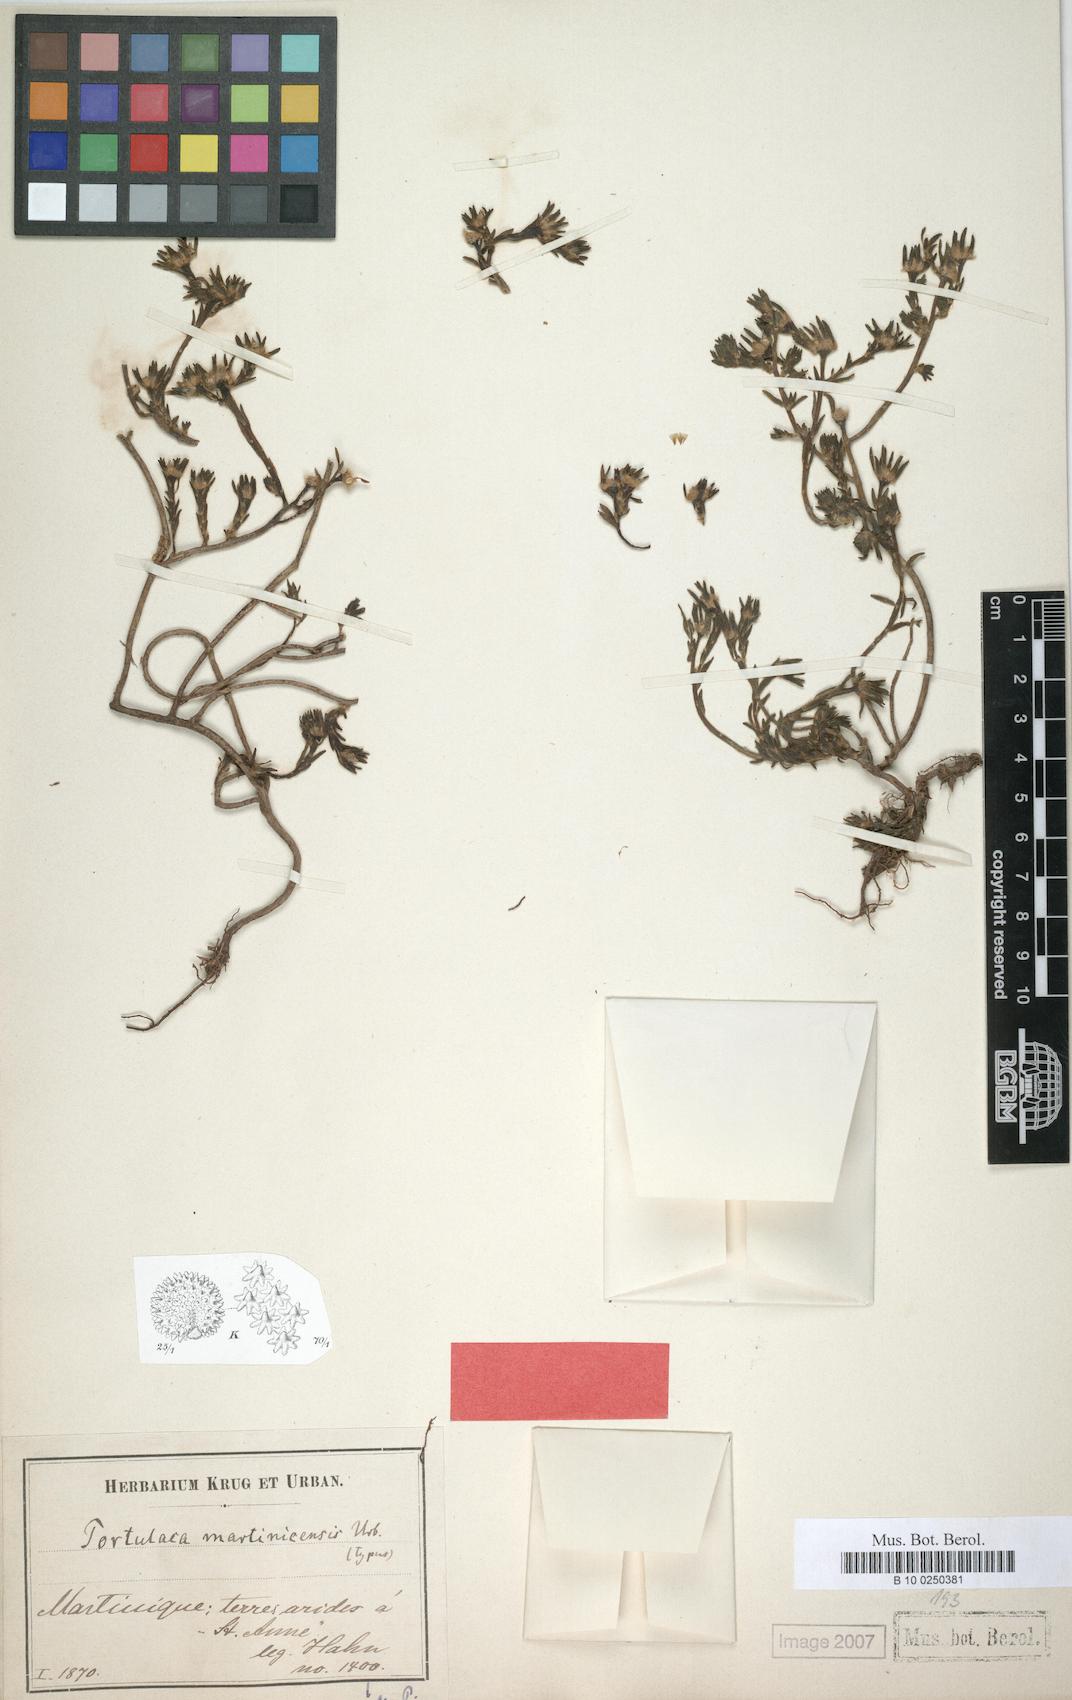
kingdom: Plantae
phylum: Tracheophyta
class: Magnoliopsida
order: Caryophyllales
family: Portulacaceae
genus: Portulaca
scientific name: Portulaca halimoides
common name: Silk cotton purslane
